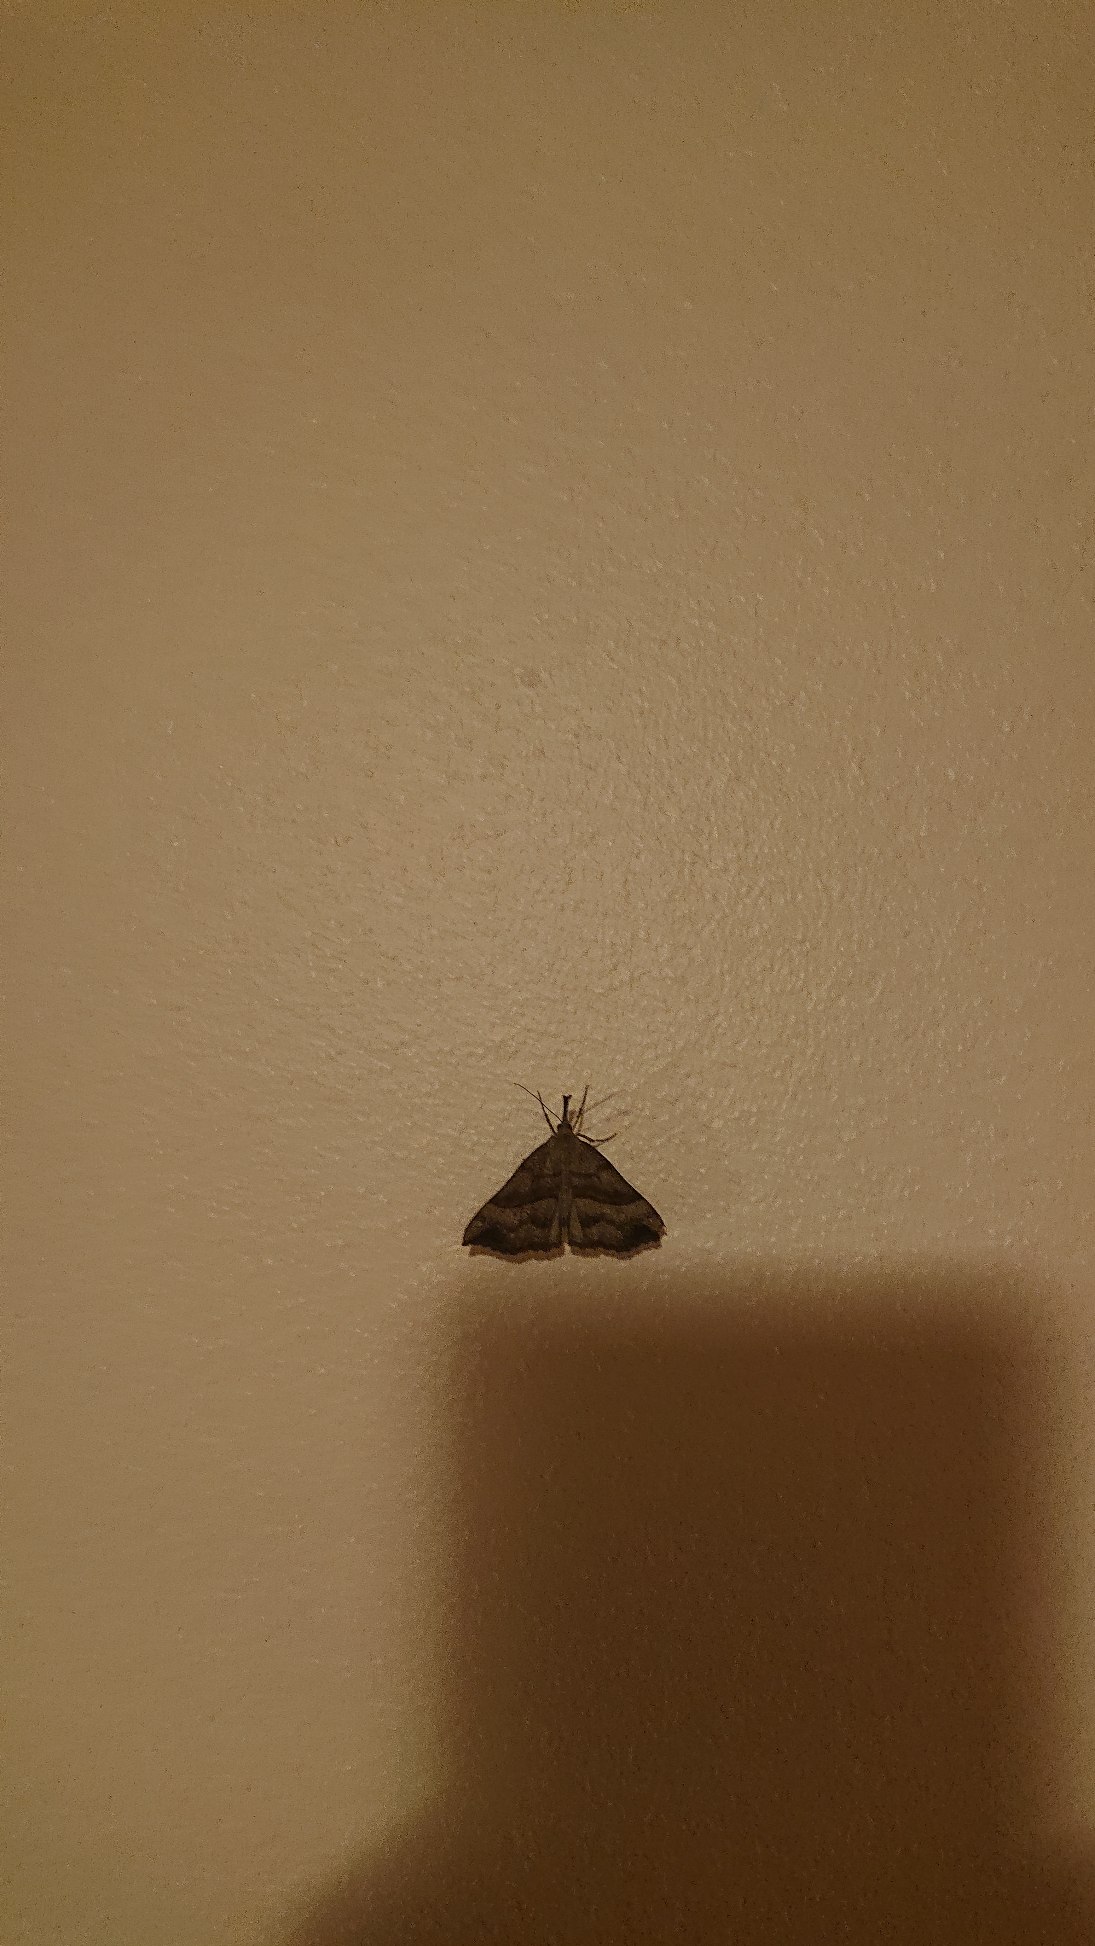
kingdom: Animalia
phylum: Arthropoda
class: Insecta
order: Lepidoptera
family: Erebidae
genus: Hypena
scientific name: Hypena proboscidalis
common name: Snudeugle
